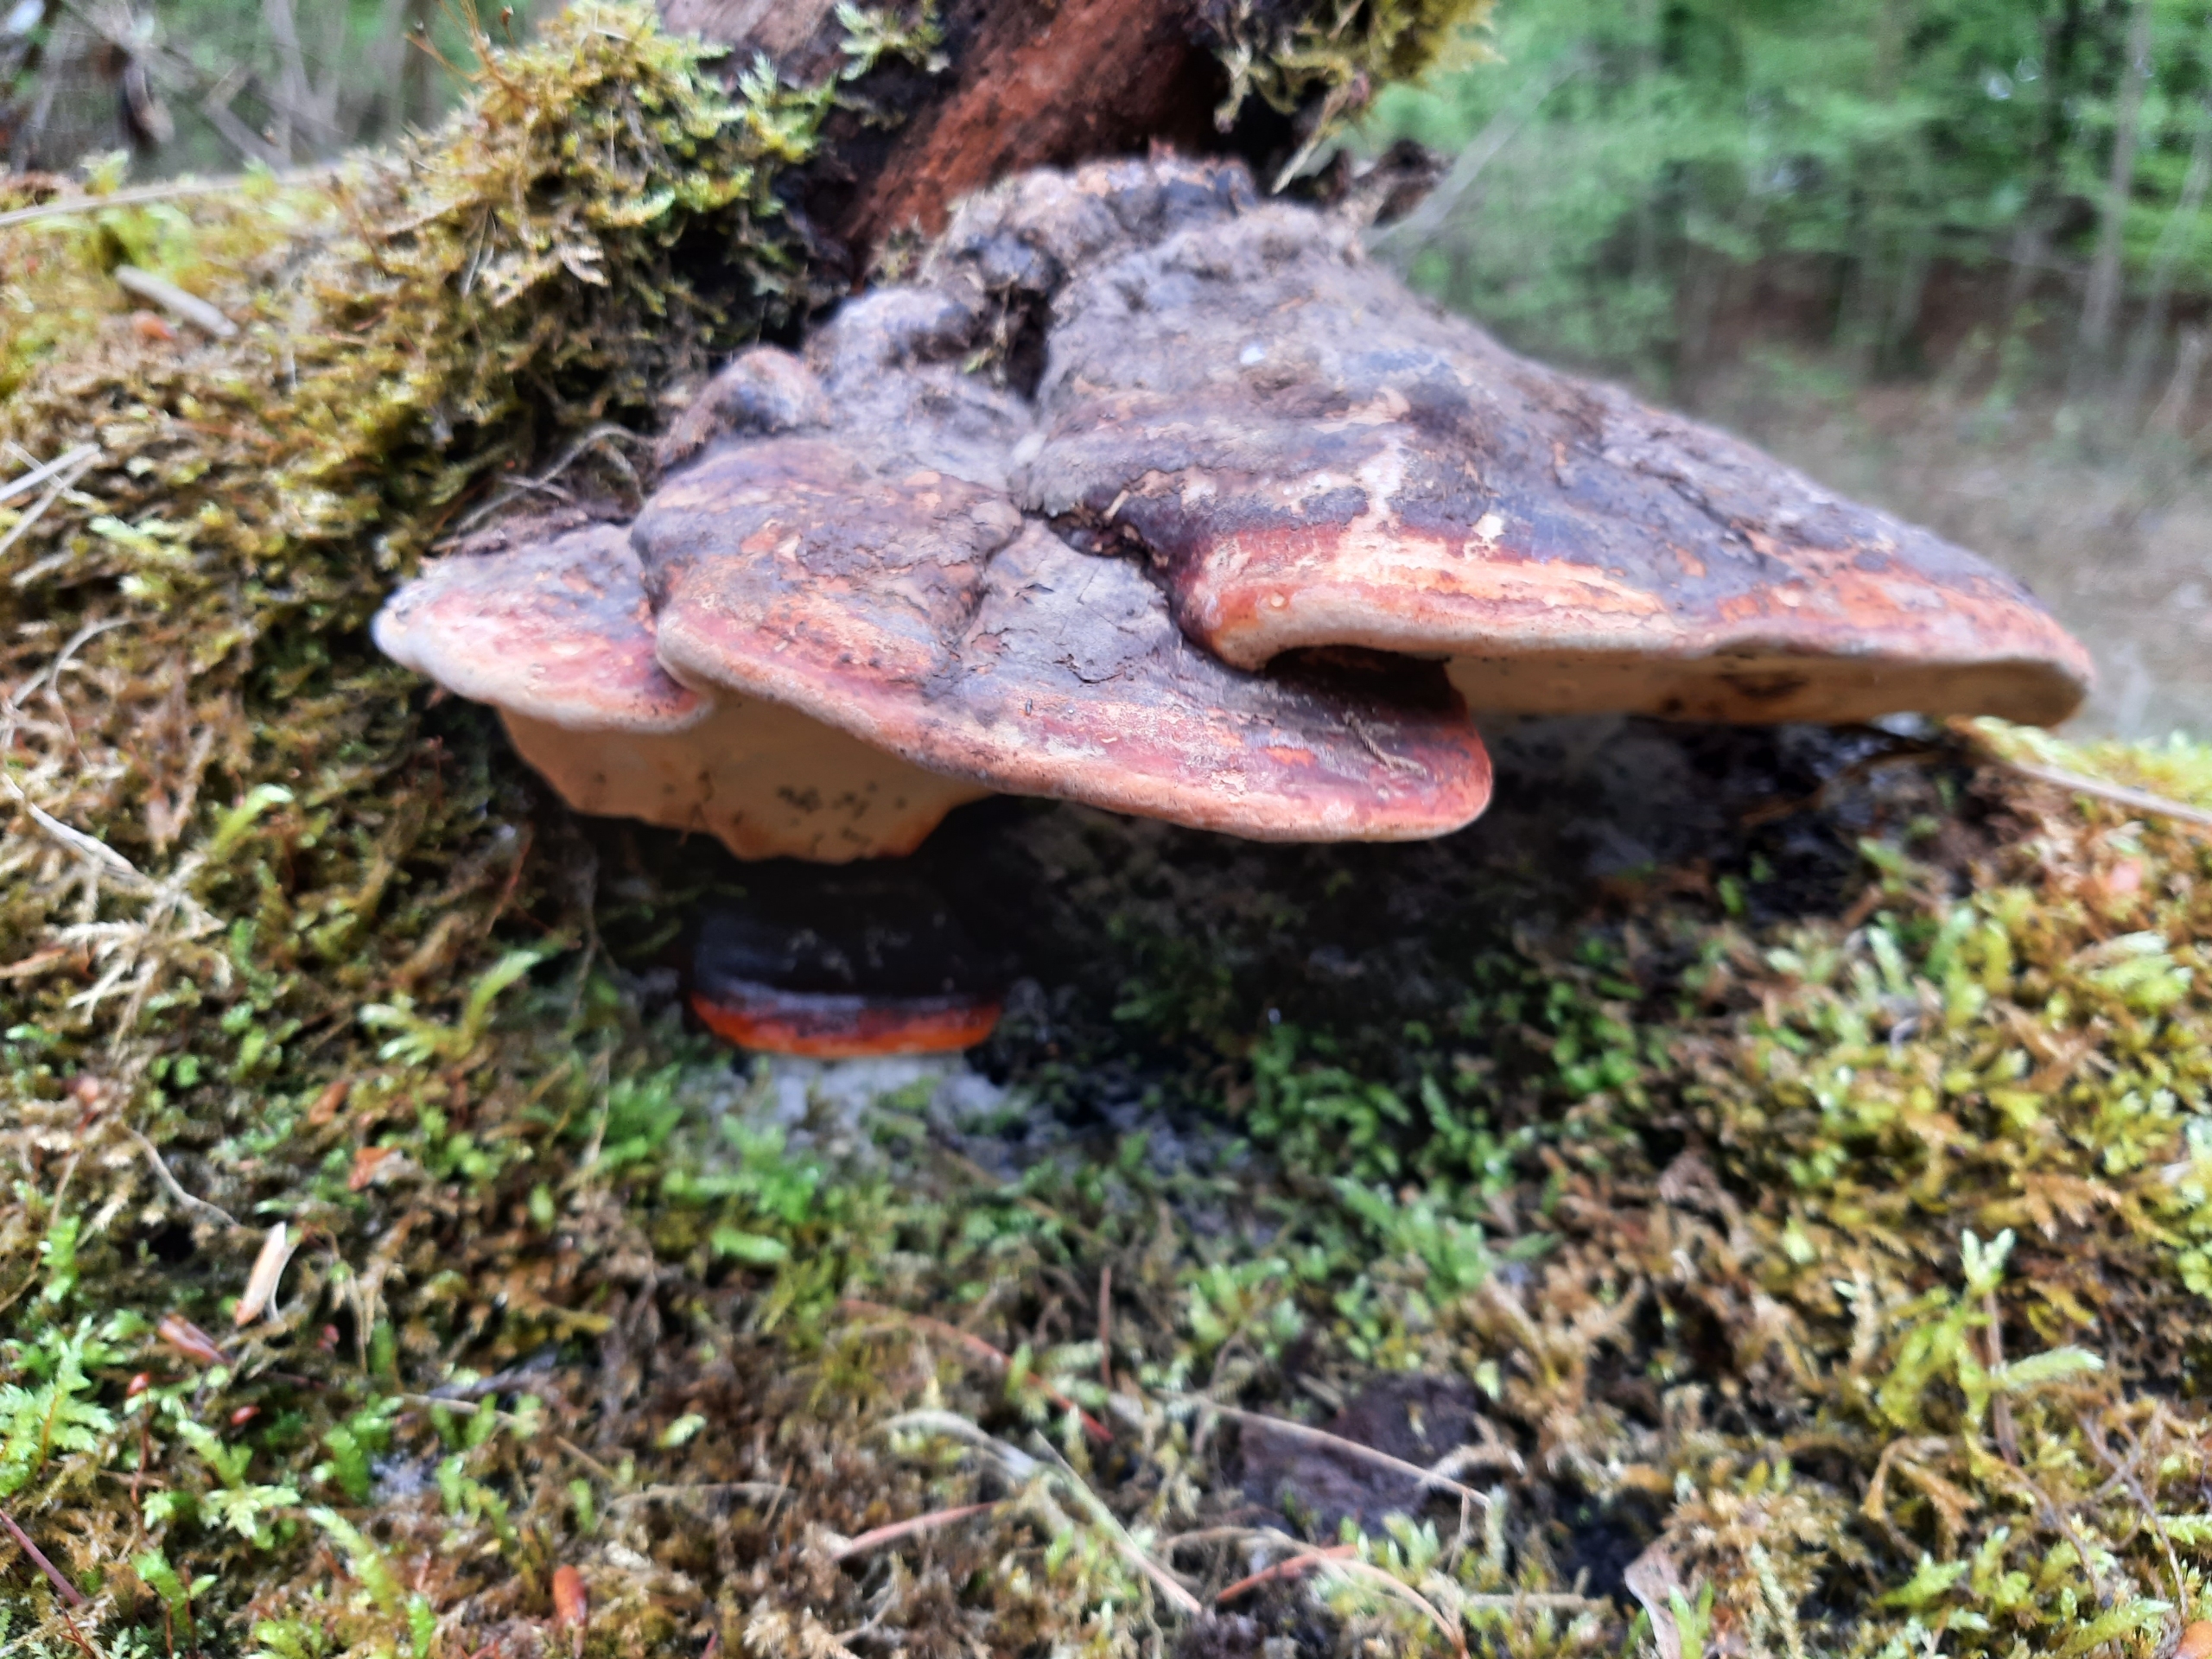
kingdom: Fungi
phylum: Basidiomycota
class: Agaricomycetes
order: Polyporales
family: Fomitopsidaceae
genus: Fomitopsis
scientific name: Fomitopsis pinicola
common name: Randbæltet hovporesvamp
